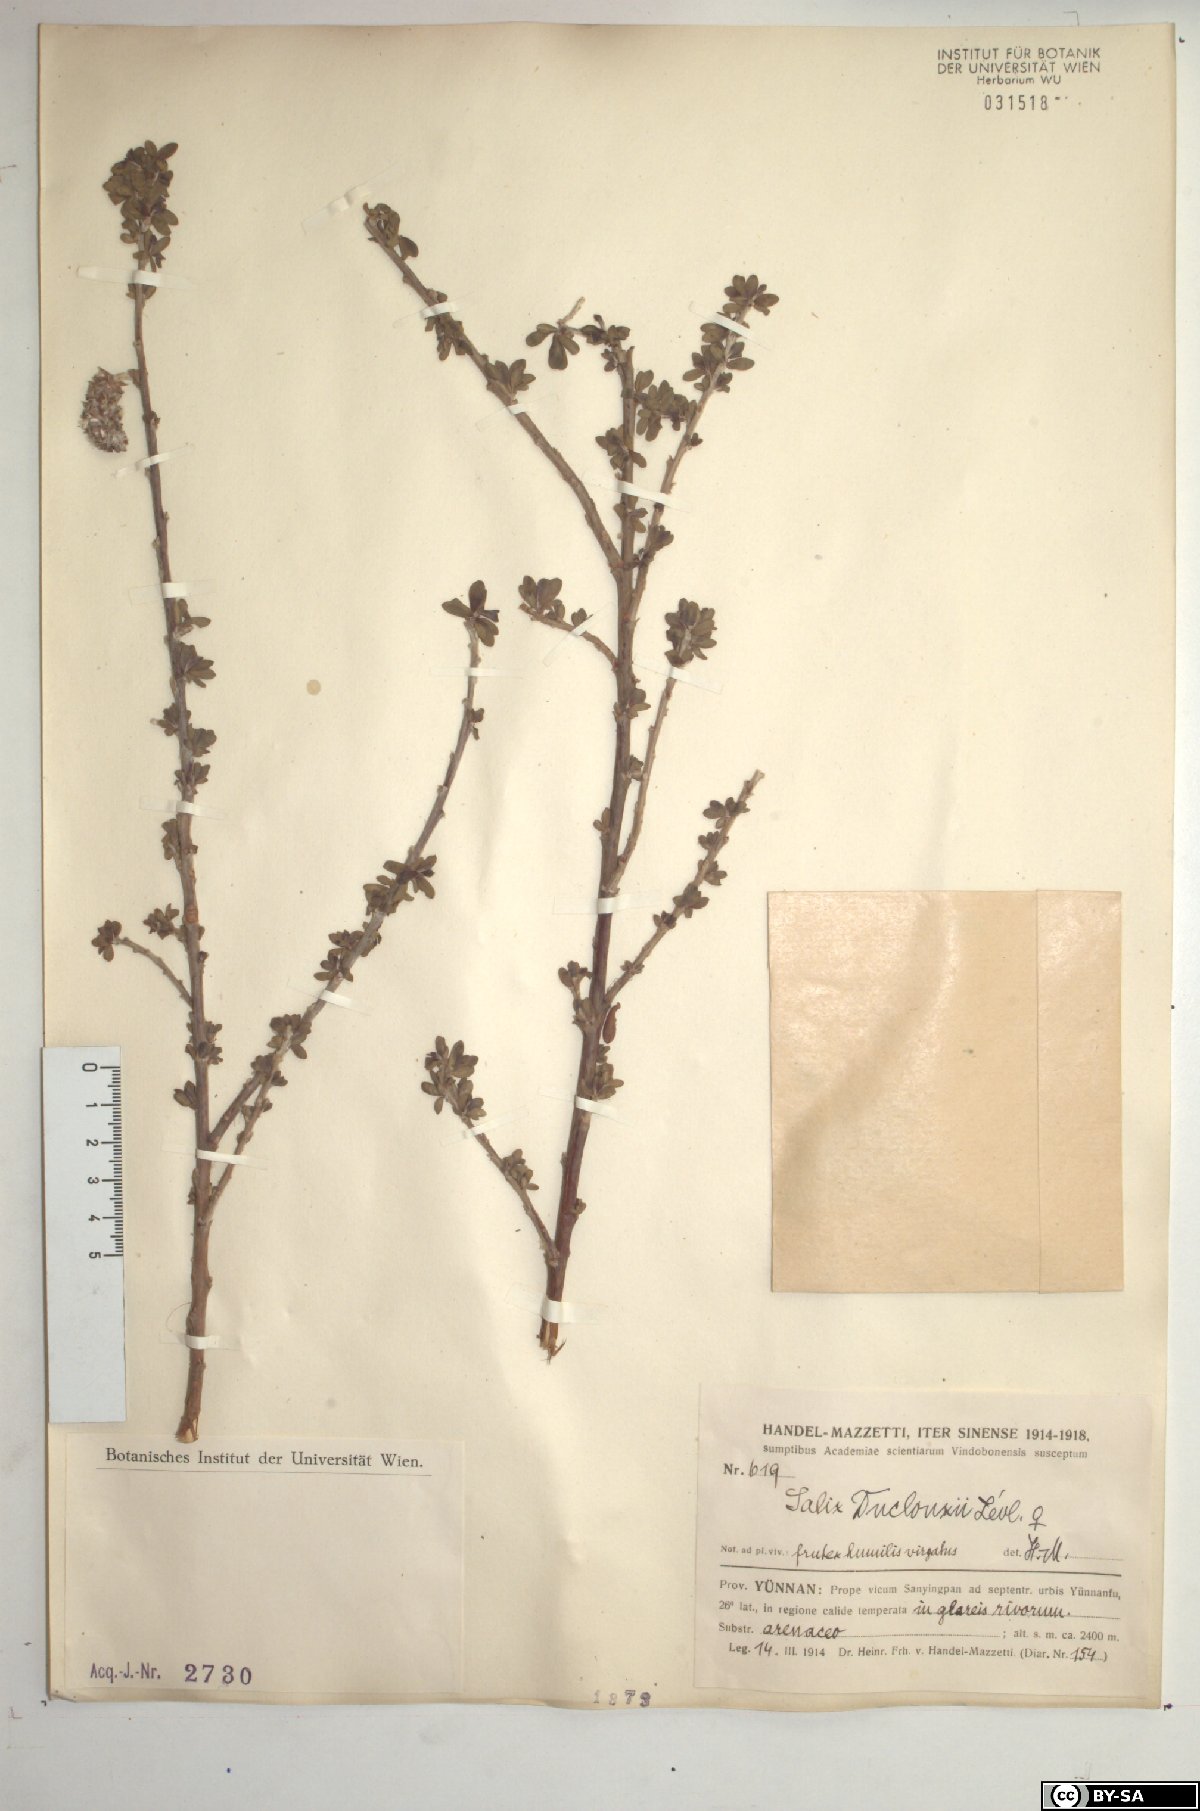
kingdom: Plantae
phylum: Tracheophyta
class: Magnoliopsida
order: Malpighiales
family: Salicaceae
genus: Salix
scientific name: Salix variegata
